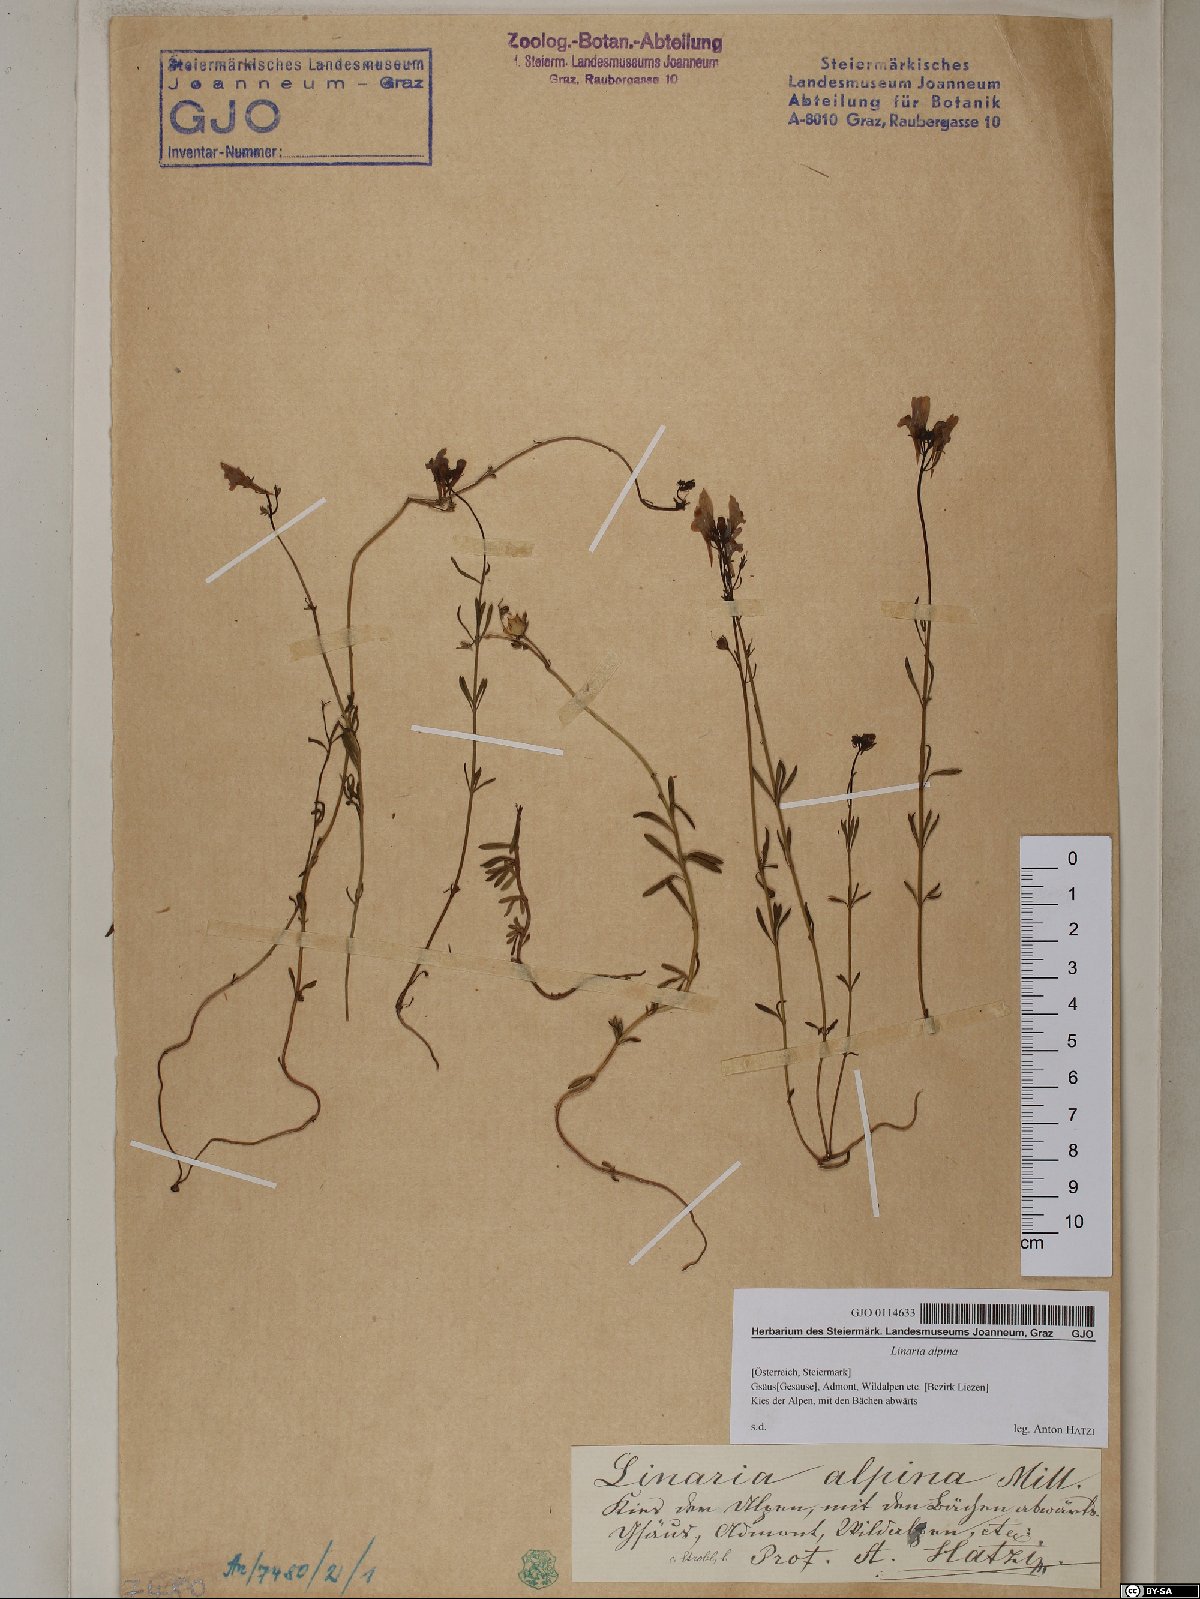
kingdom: Plantae
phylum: Tracheophyta
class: Magnoliopsida
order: Lamiales
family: Plantaginaceae
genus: Linaria
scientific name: Linaria alpina
